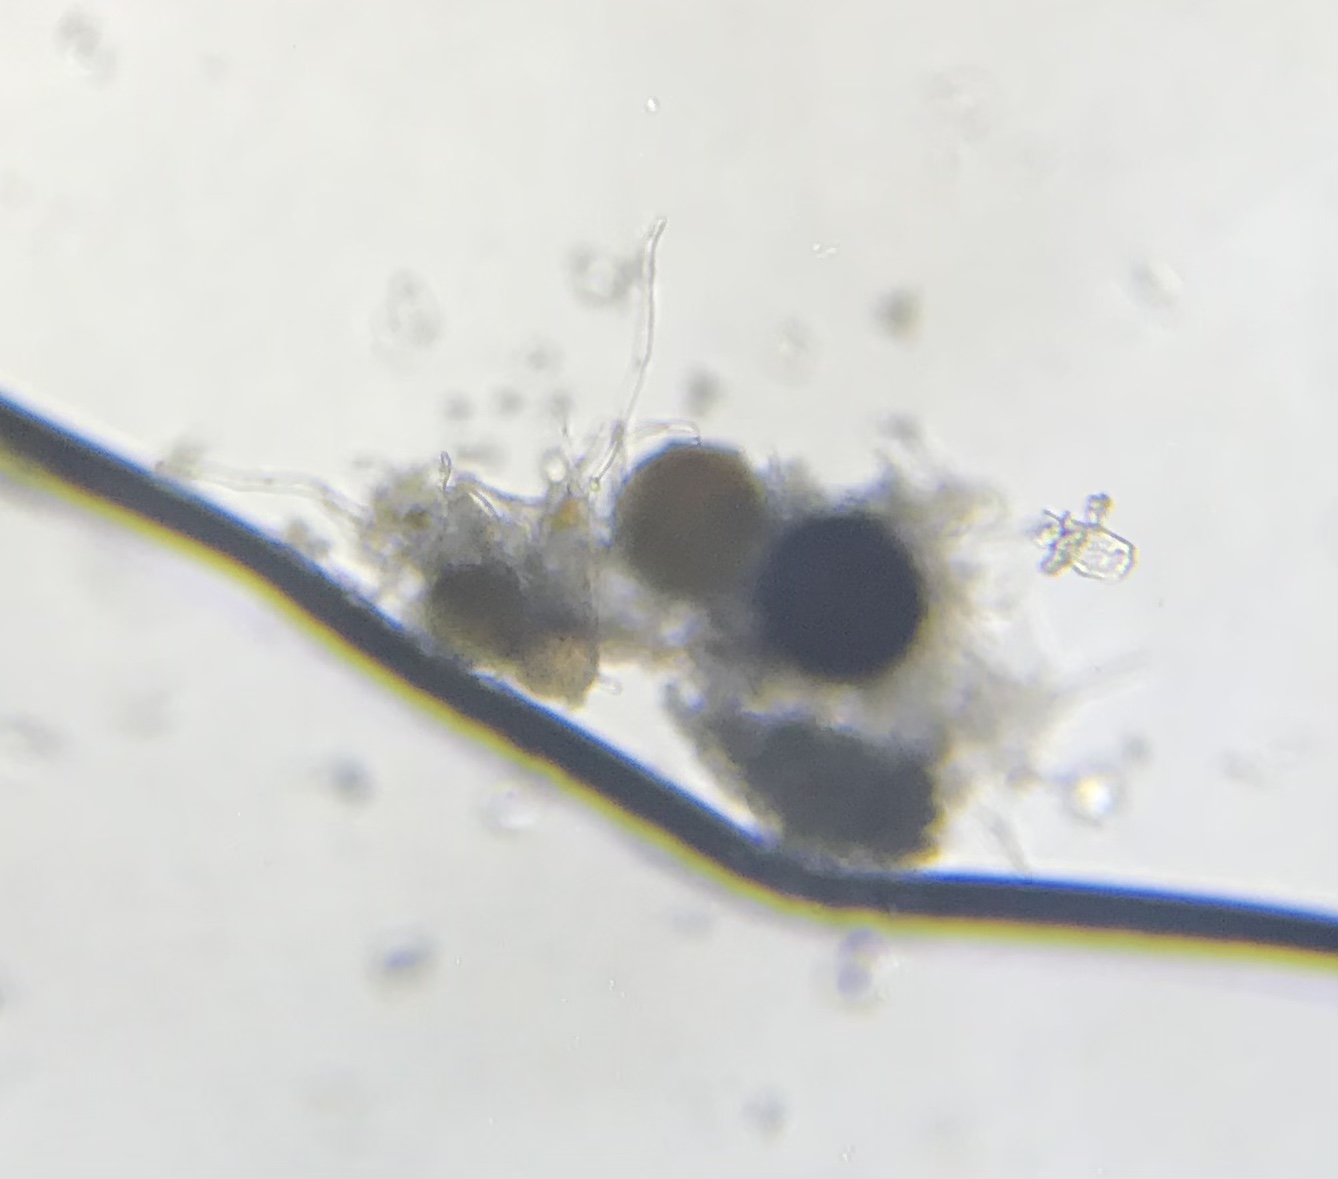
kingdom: Fungi
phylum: Ascomycota
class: Leotiomycetes
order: Helotiales
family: Erysiphaceae
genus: Erysiphe
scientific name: Erysiphe polygoni
